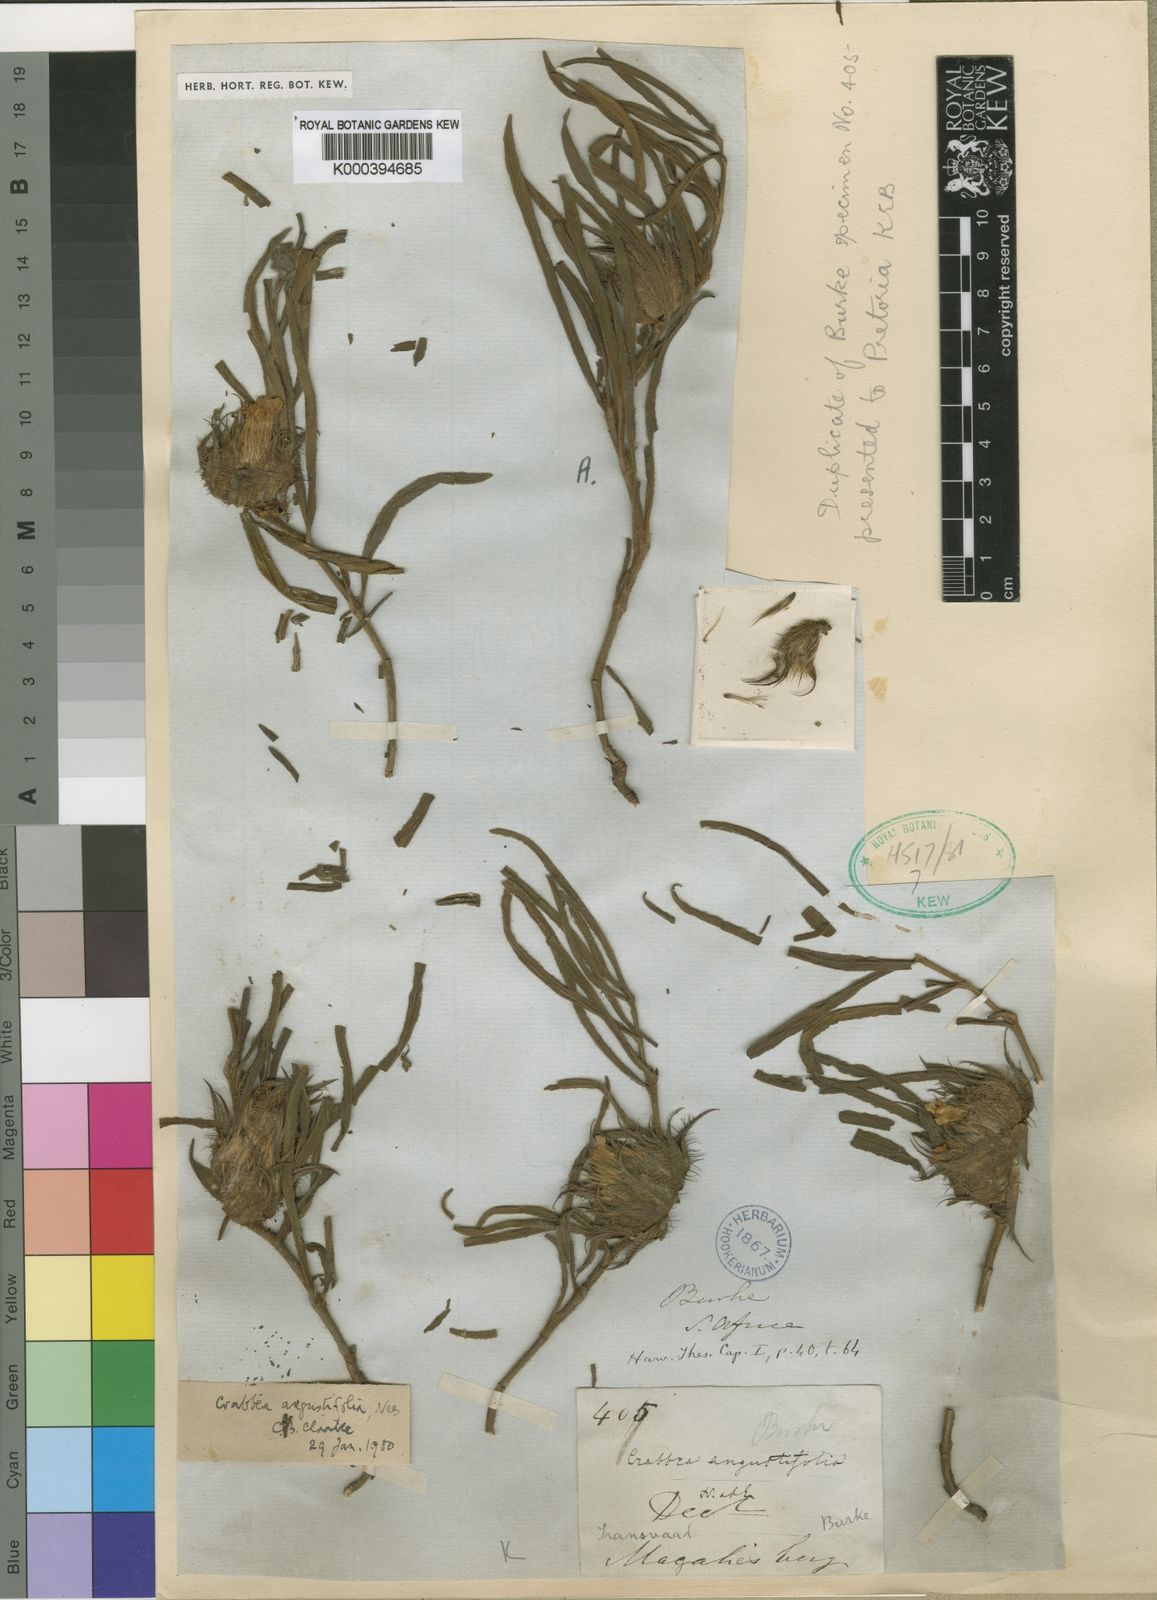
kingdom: Plantae
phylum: Tracheophyta
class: Magnoliopsida
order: Lamiales
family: Acanthaceae
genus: Crabbea
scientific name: Crabbea cirsioides
